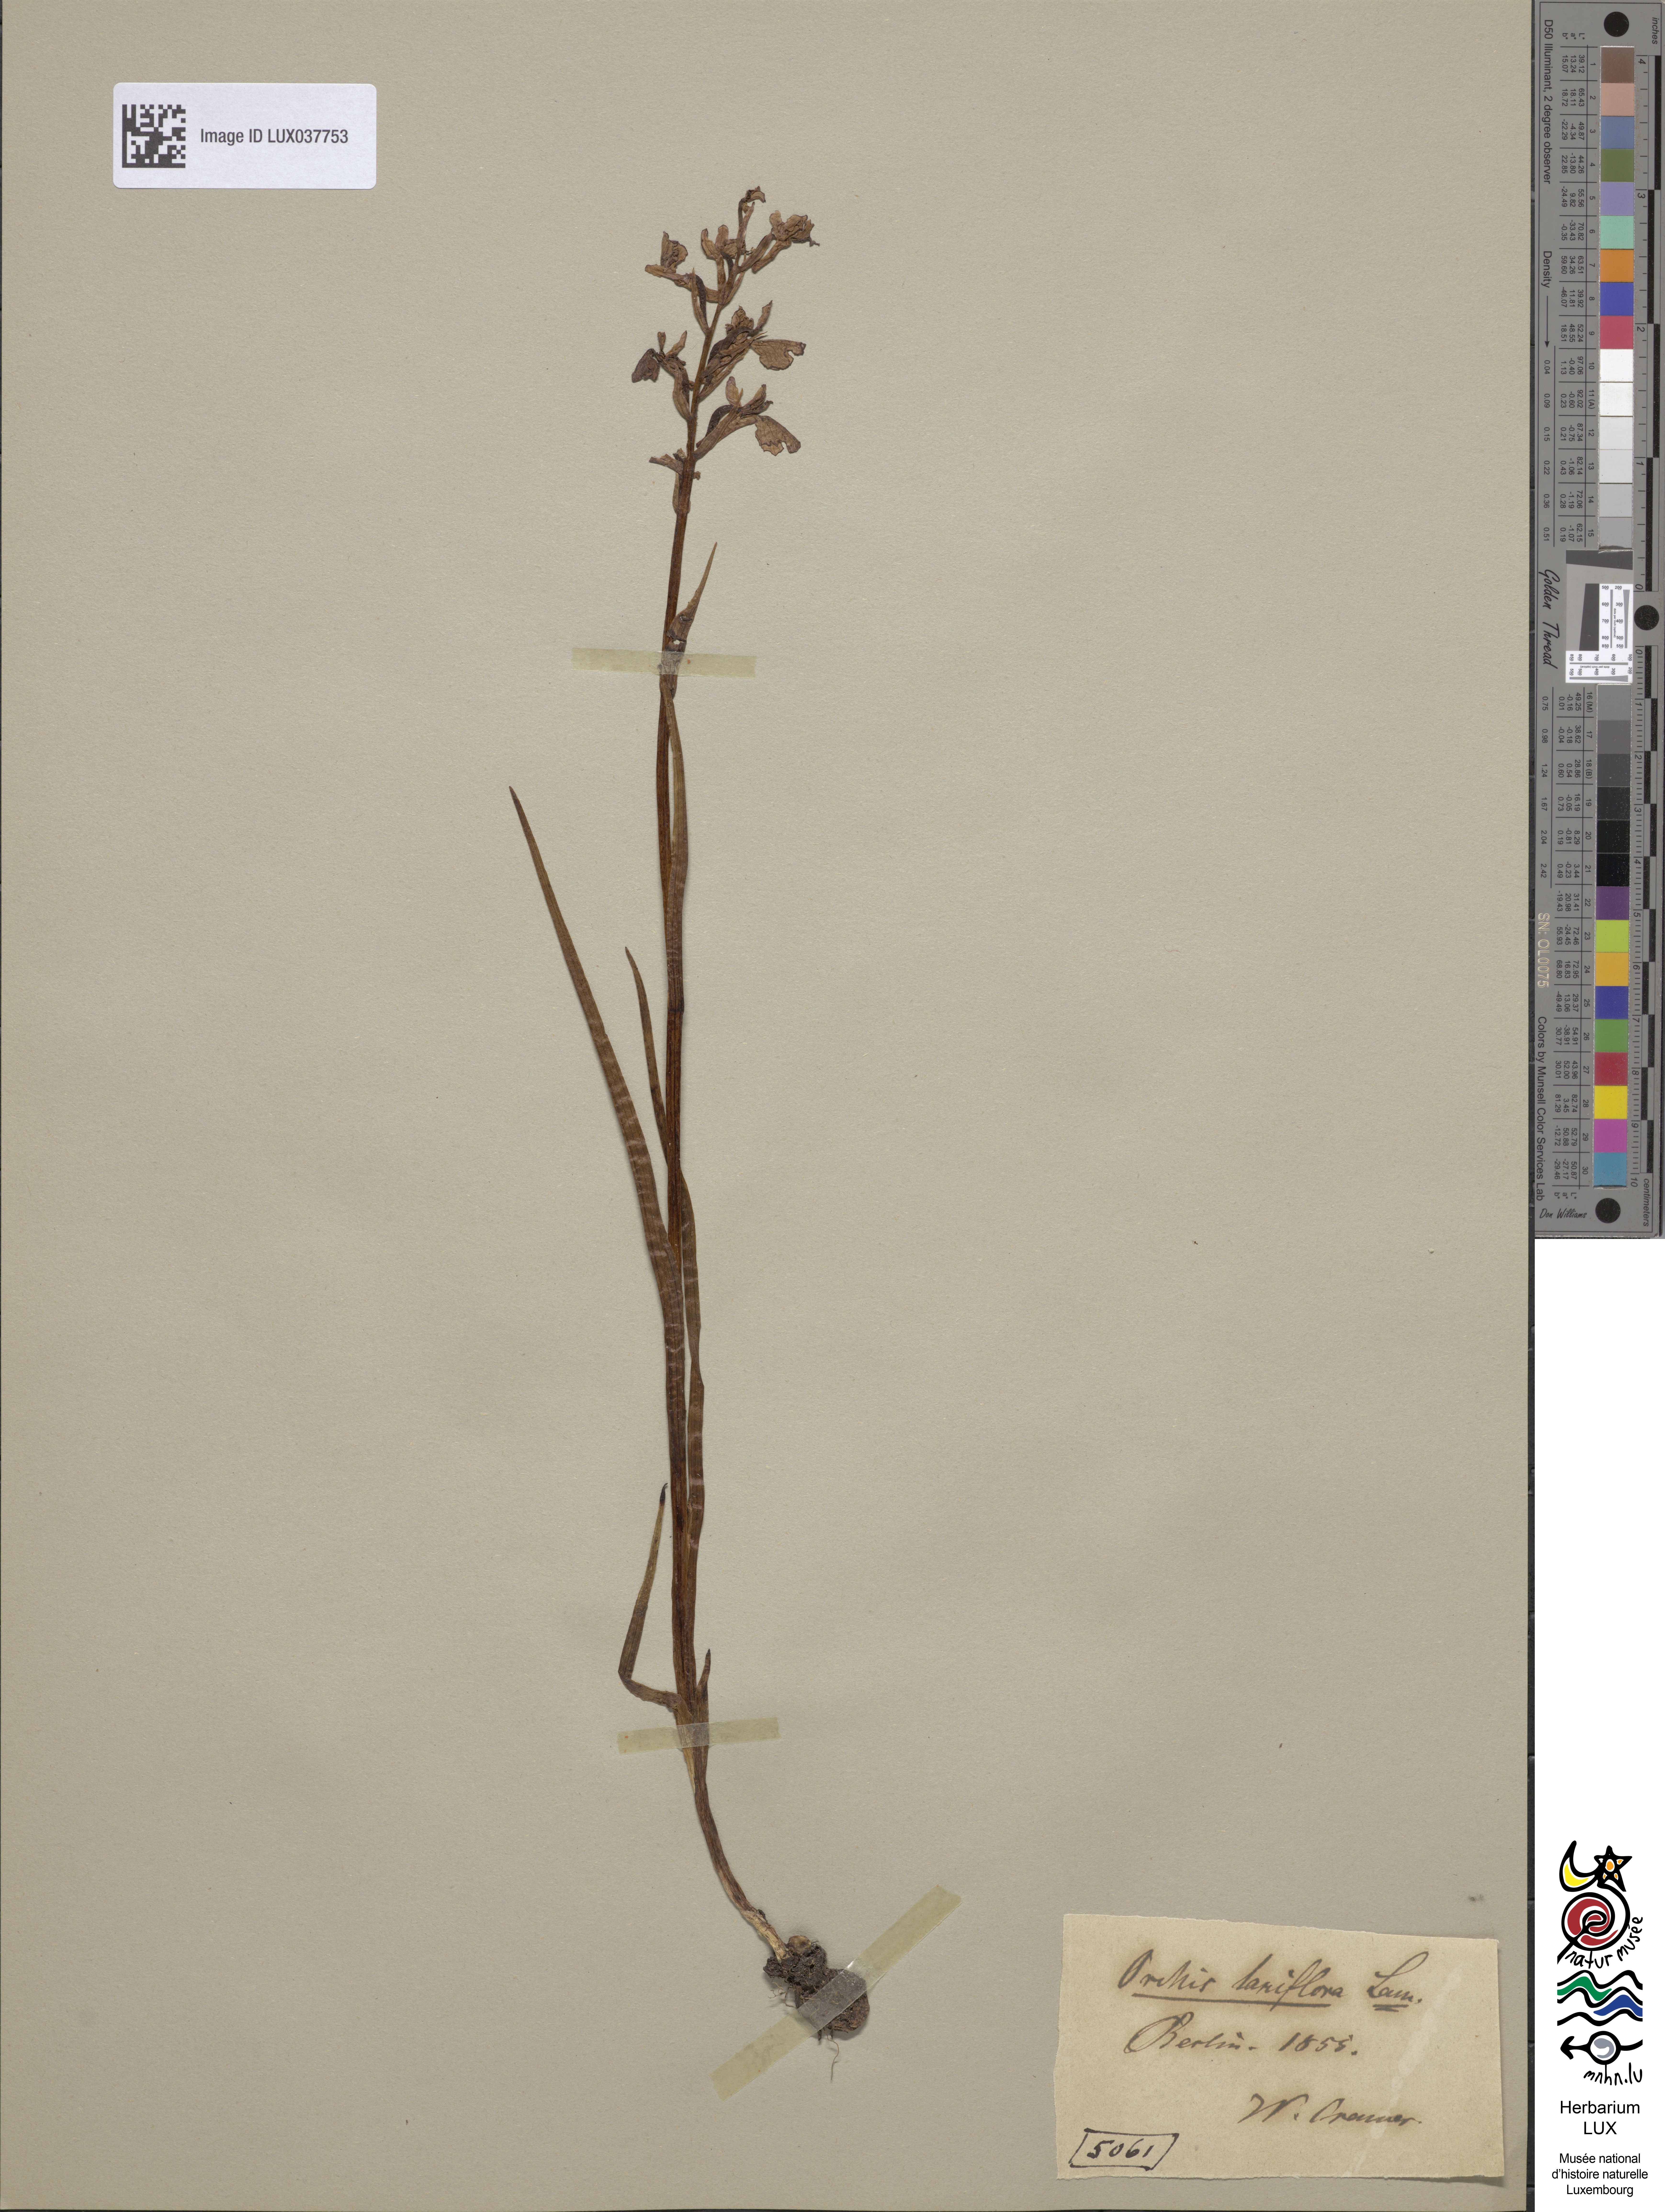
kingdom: Plantae
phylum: Tracheophyta
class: Liliopsida
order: Asparagales
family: Orchidaceae
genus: Anacamptis
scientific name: Anacamptis laxiflora
